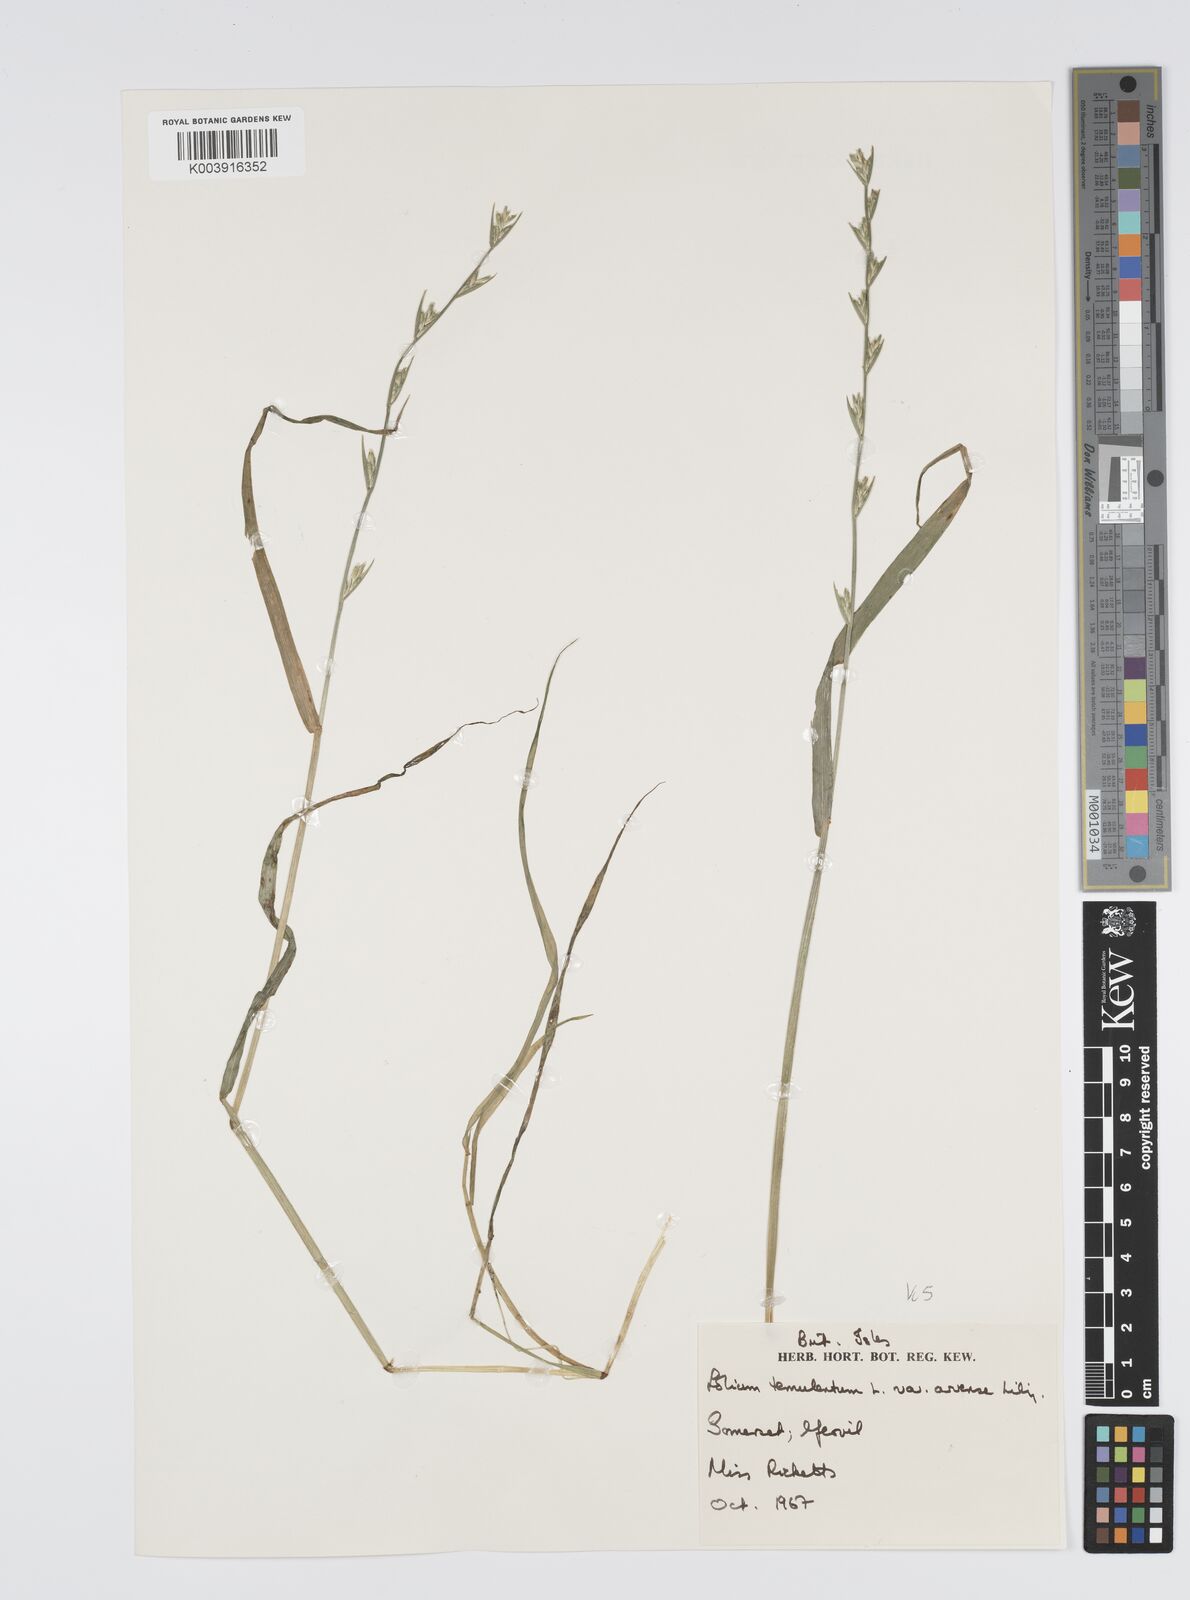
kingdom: Plantae
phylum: Tracheophyta
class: Liliopsida
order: Poales
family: Poaceae
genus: Lolium
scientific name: Lolium temulentum
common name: Darnel
